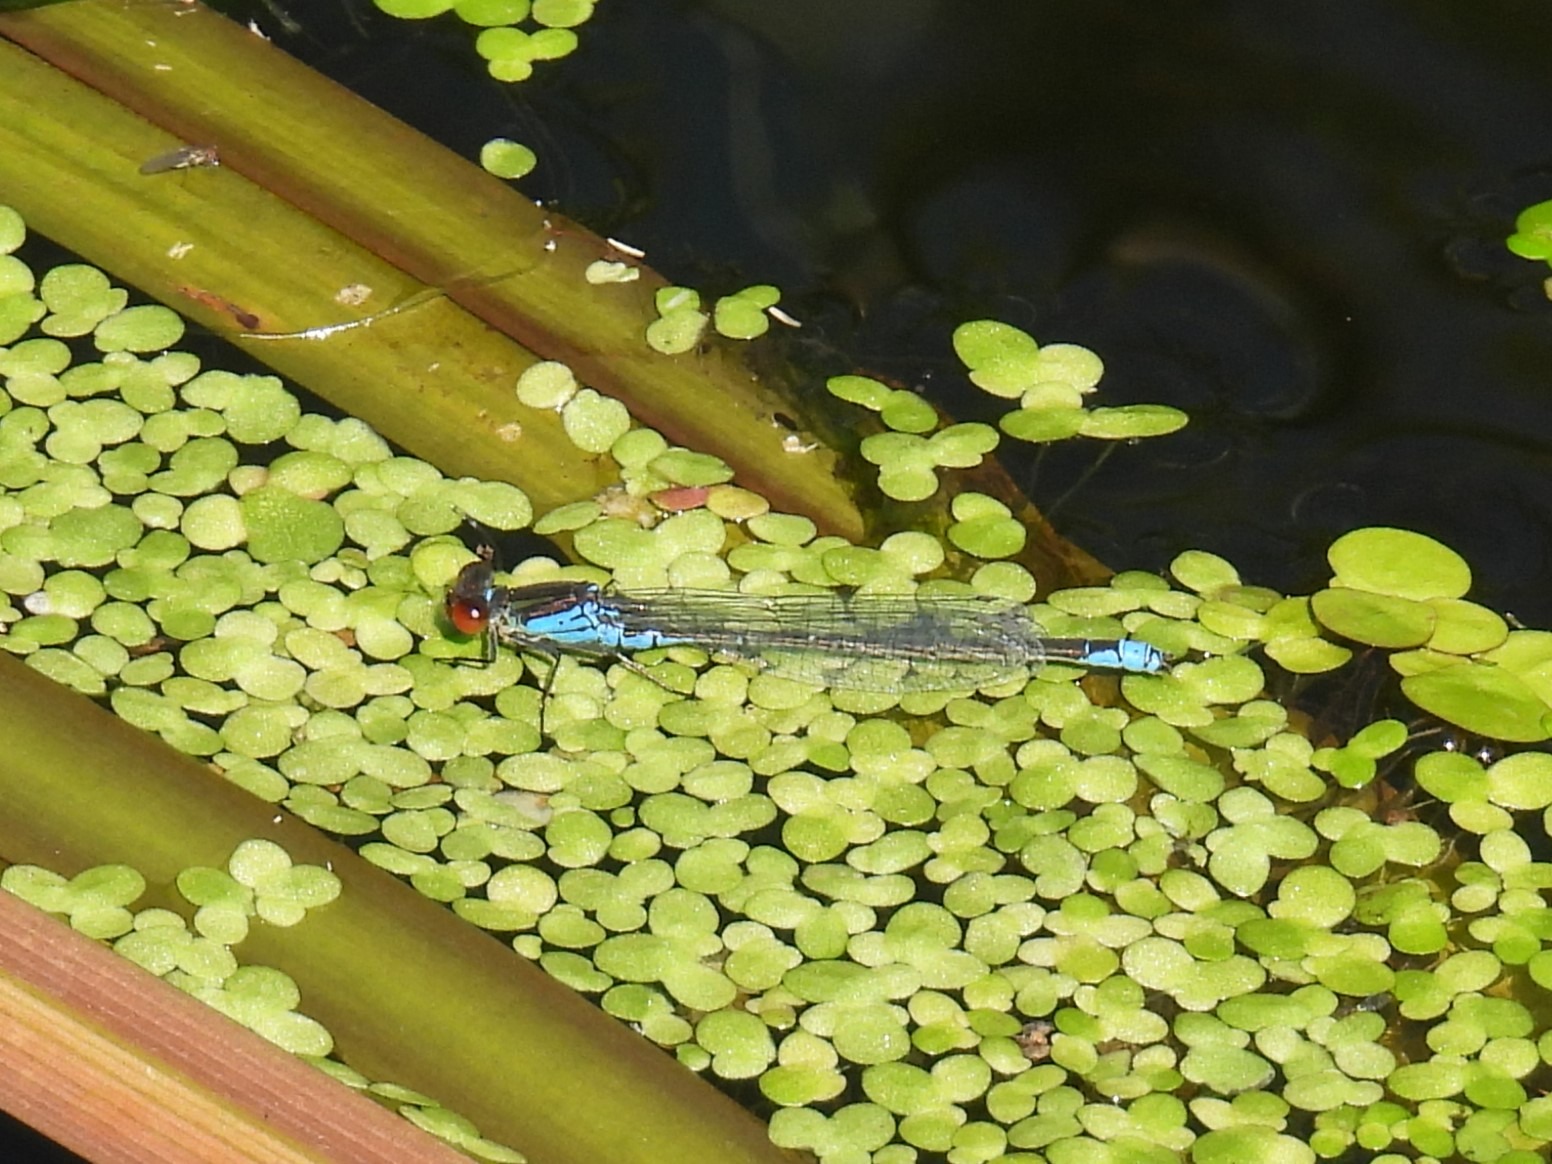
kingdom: Animalia
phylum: Arthropoda
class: Insecta
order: Odonata
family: Coenagrionidae
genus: Erythromma
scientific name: Erythromma viridulum
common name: Lille rødøjet vandnymfe
